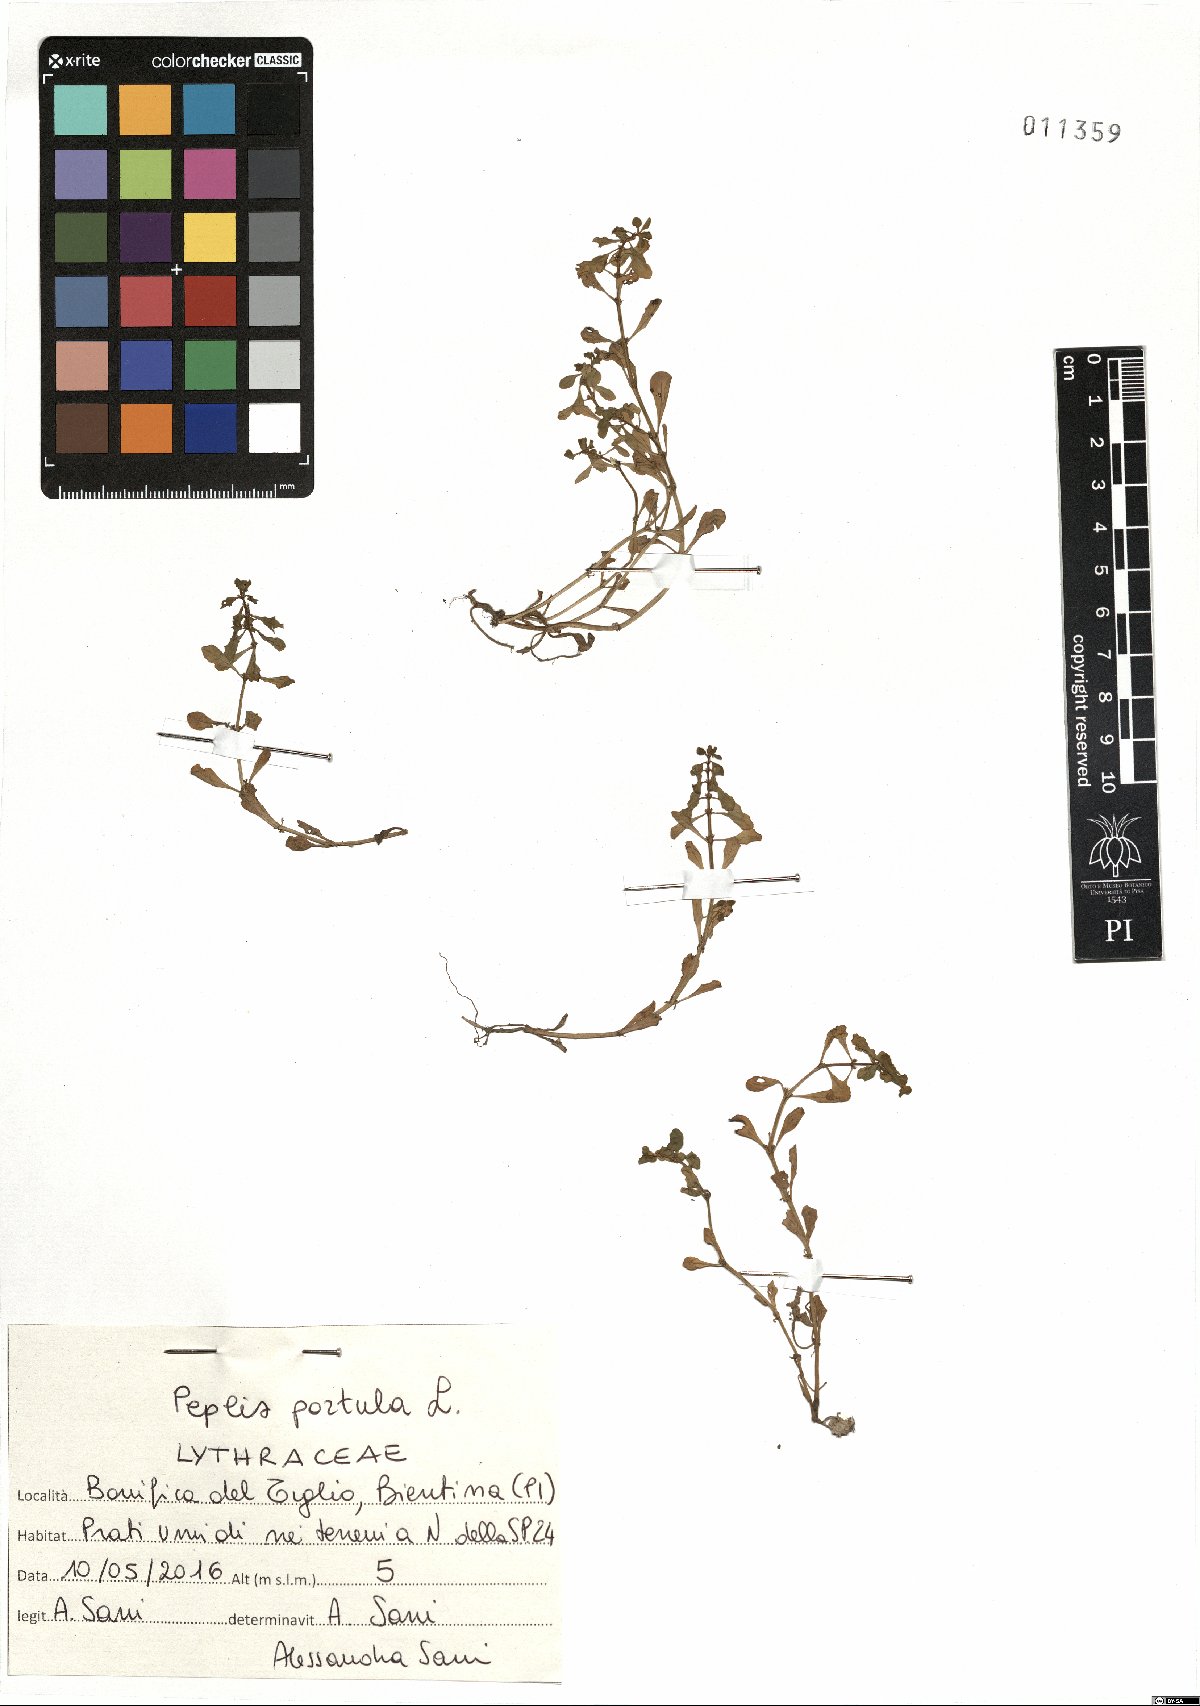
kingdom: Plantae
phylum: Tracheophyta
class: Magnoliopsida
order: Myrtales
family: Lythraceae
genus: Lythrum
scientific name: Lythrum portula
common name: Water purslane
